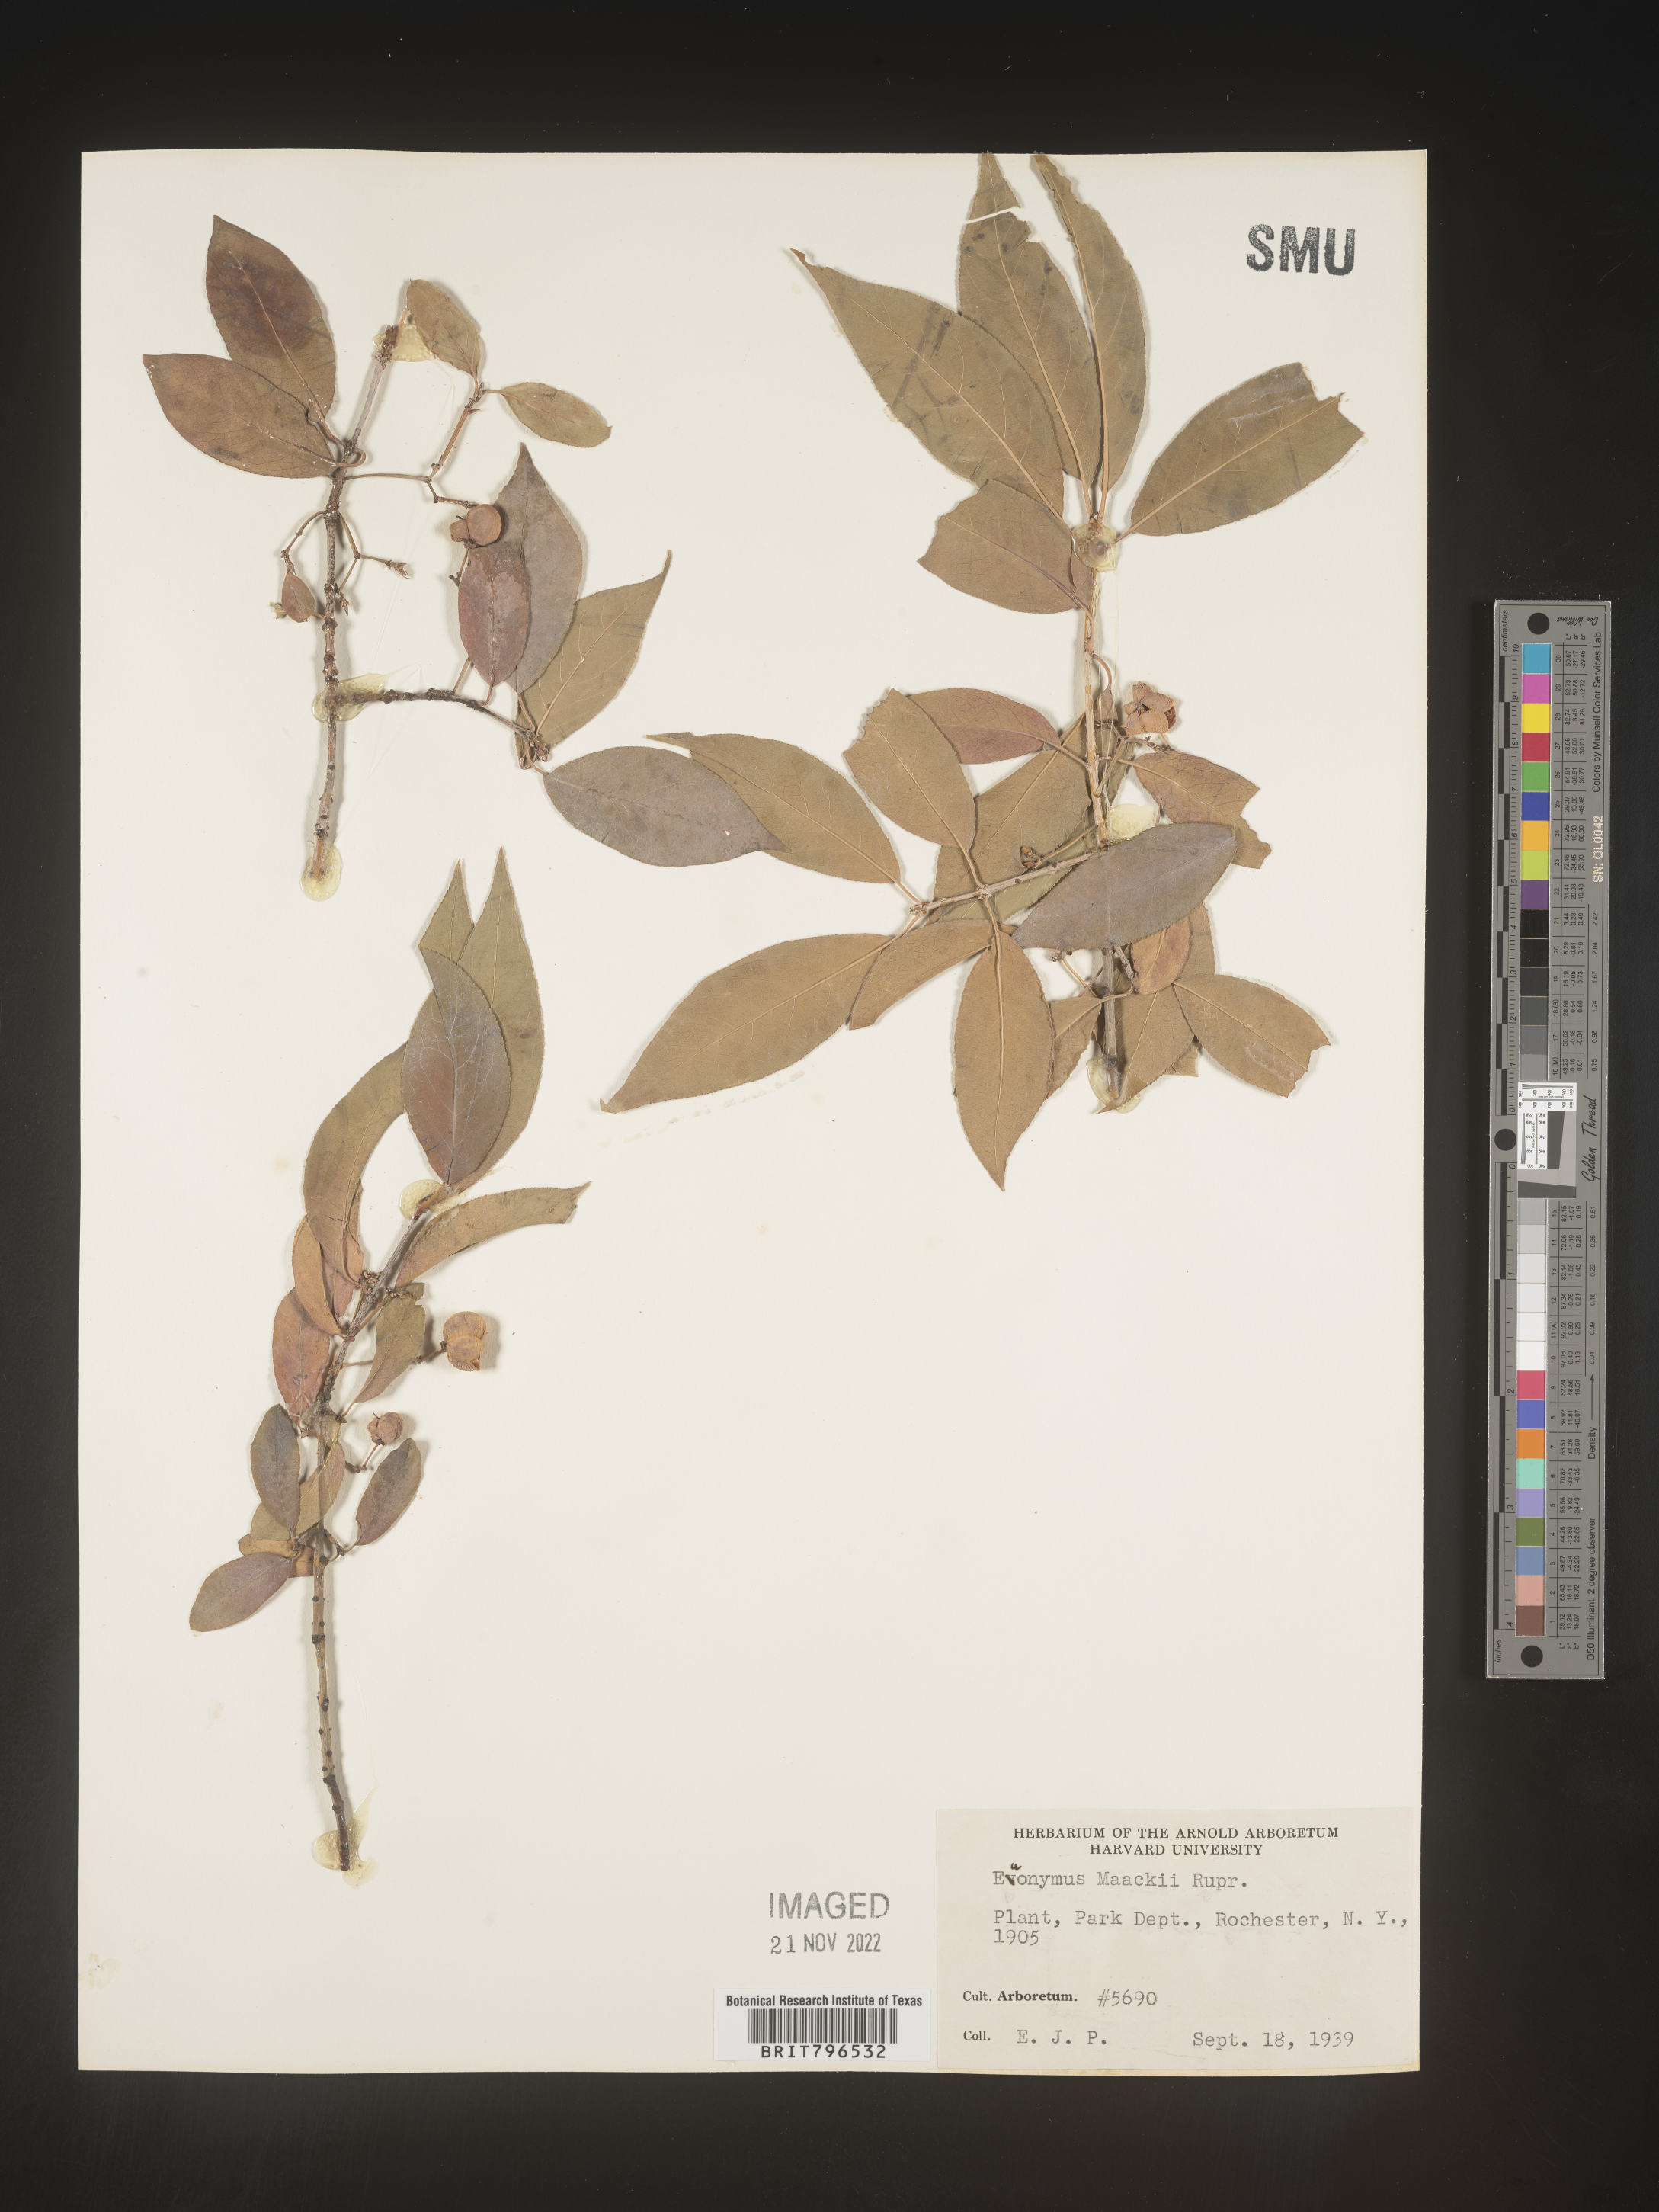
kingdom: Plantae
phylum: Tracheophyta
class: Magnoliopsida
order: Celastrales
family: Celastraceae
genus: Euonymus
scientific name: Euonymus
